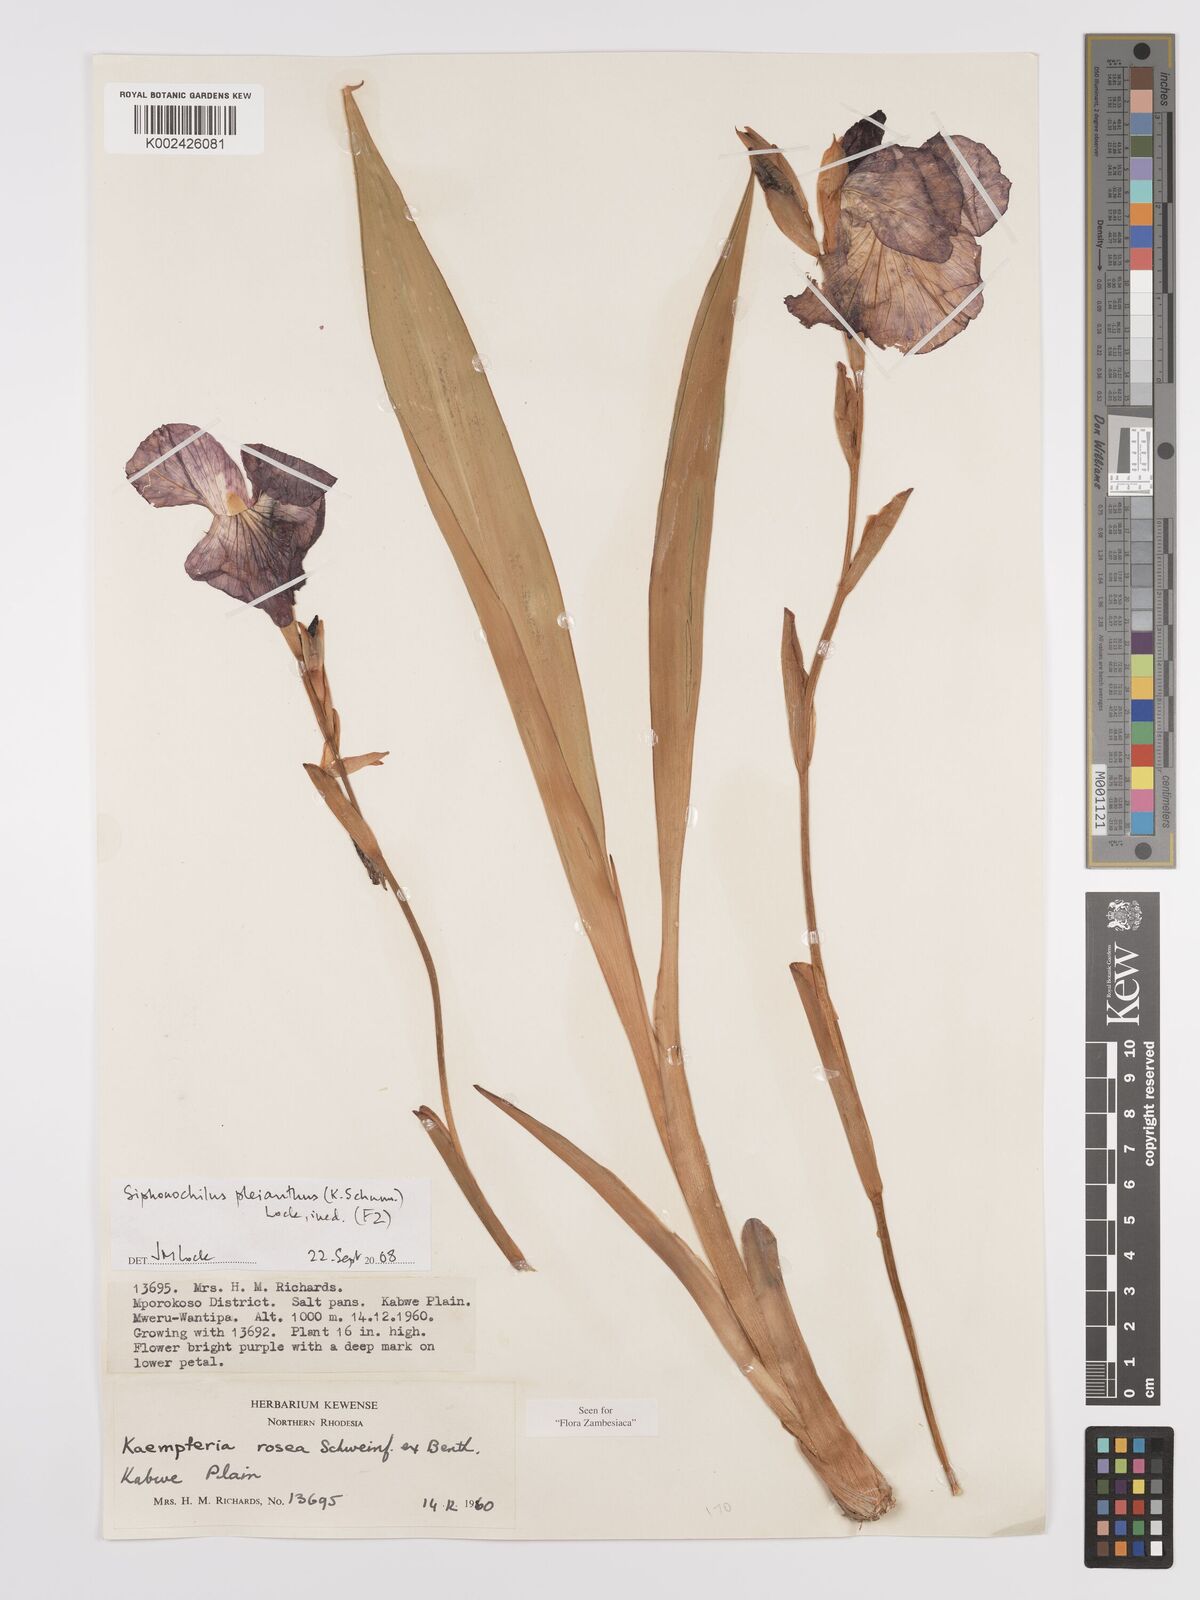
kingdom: Plantae
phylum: Tracheophyta
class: Liliopsida
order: Zingiberales
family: Zingiberaceae
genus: Siphonochilus
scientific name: Siphonochilus pleianthus
